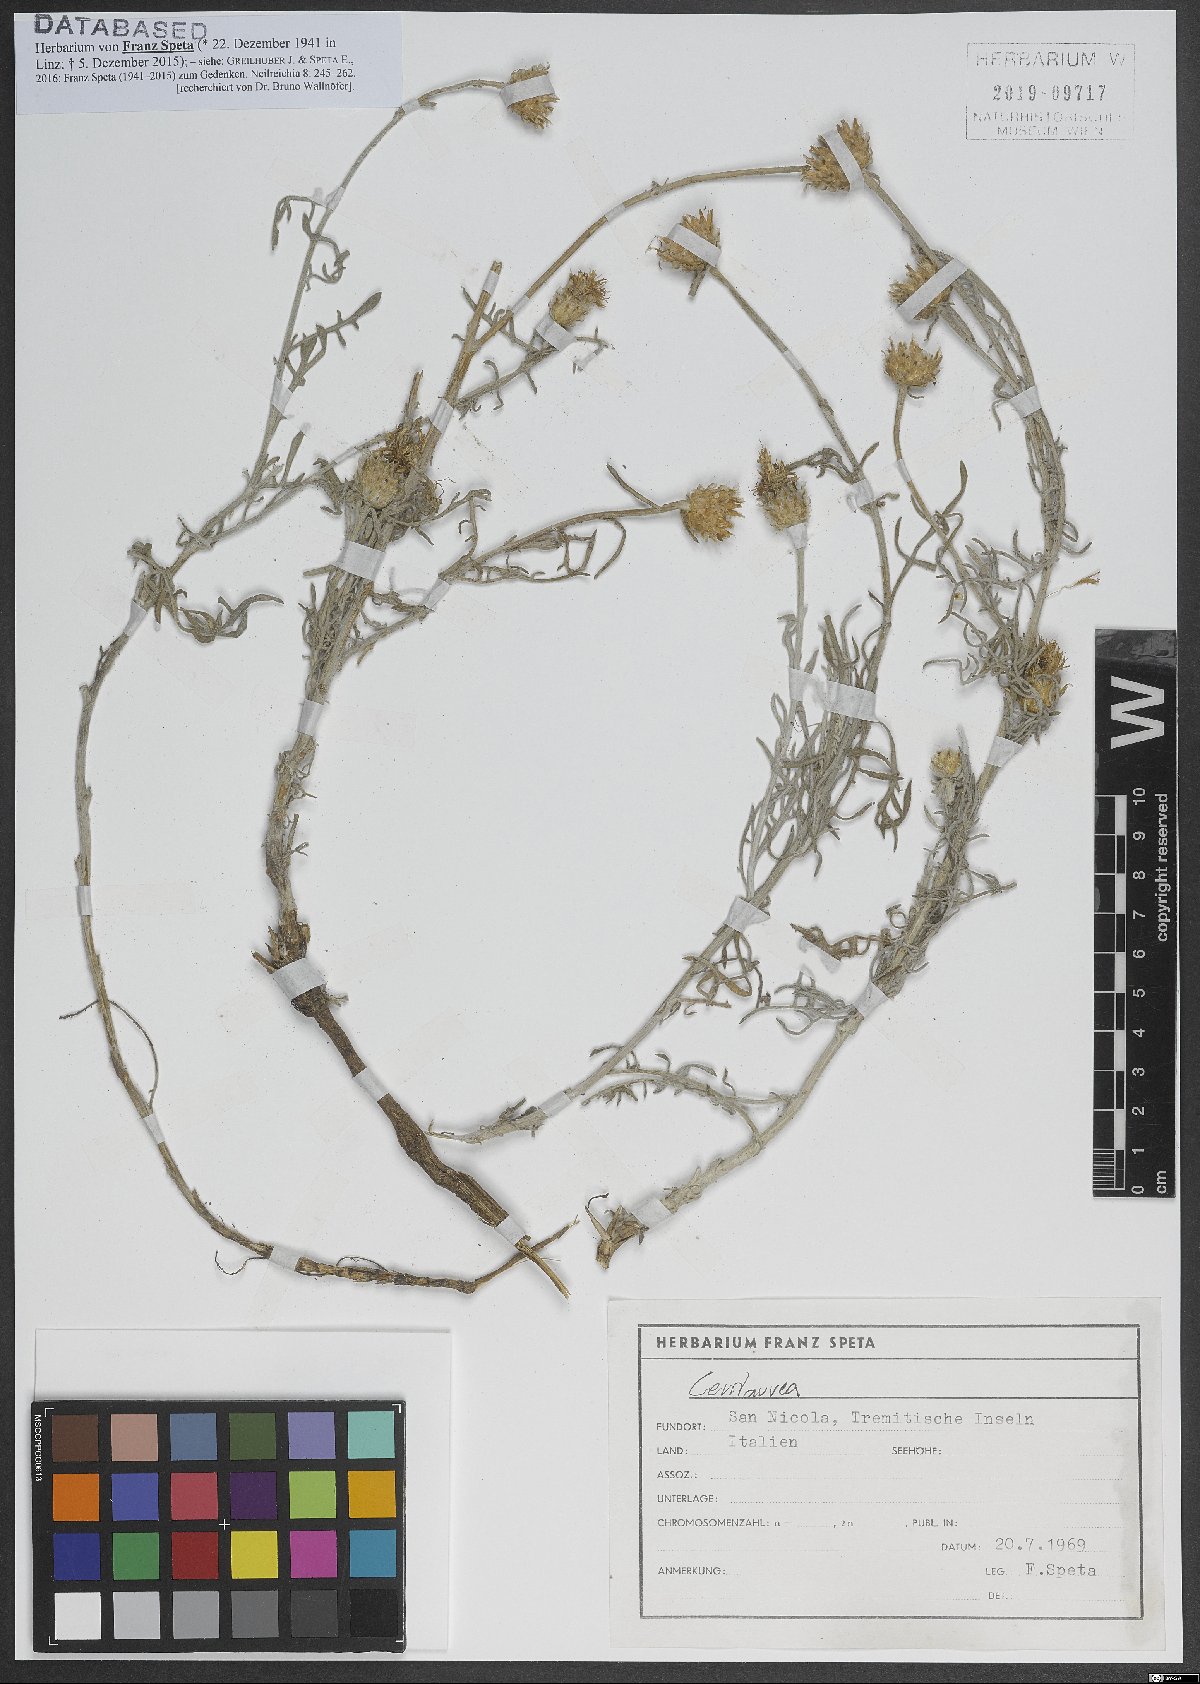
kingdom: Plantae
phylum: Tracheophyta
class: Magnoliopsida
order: Asterales
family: Asteraceae
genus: Centaurea
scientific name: Centaurea
